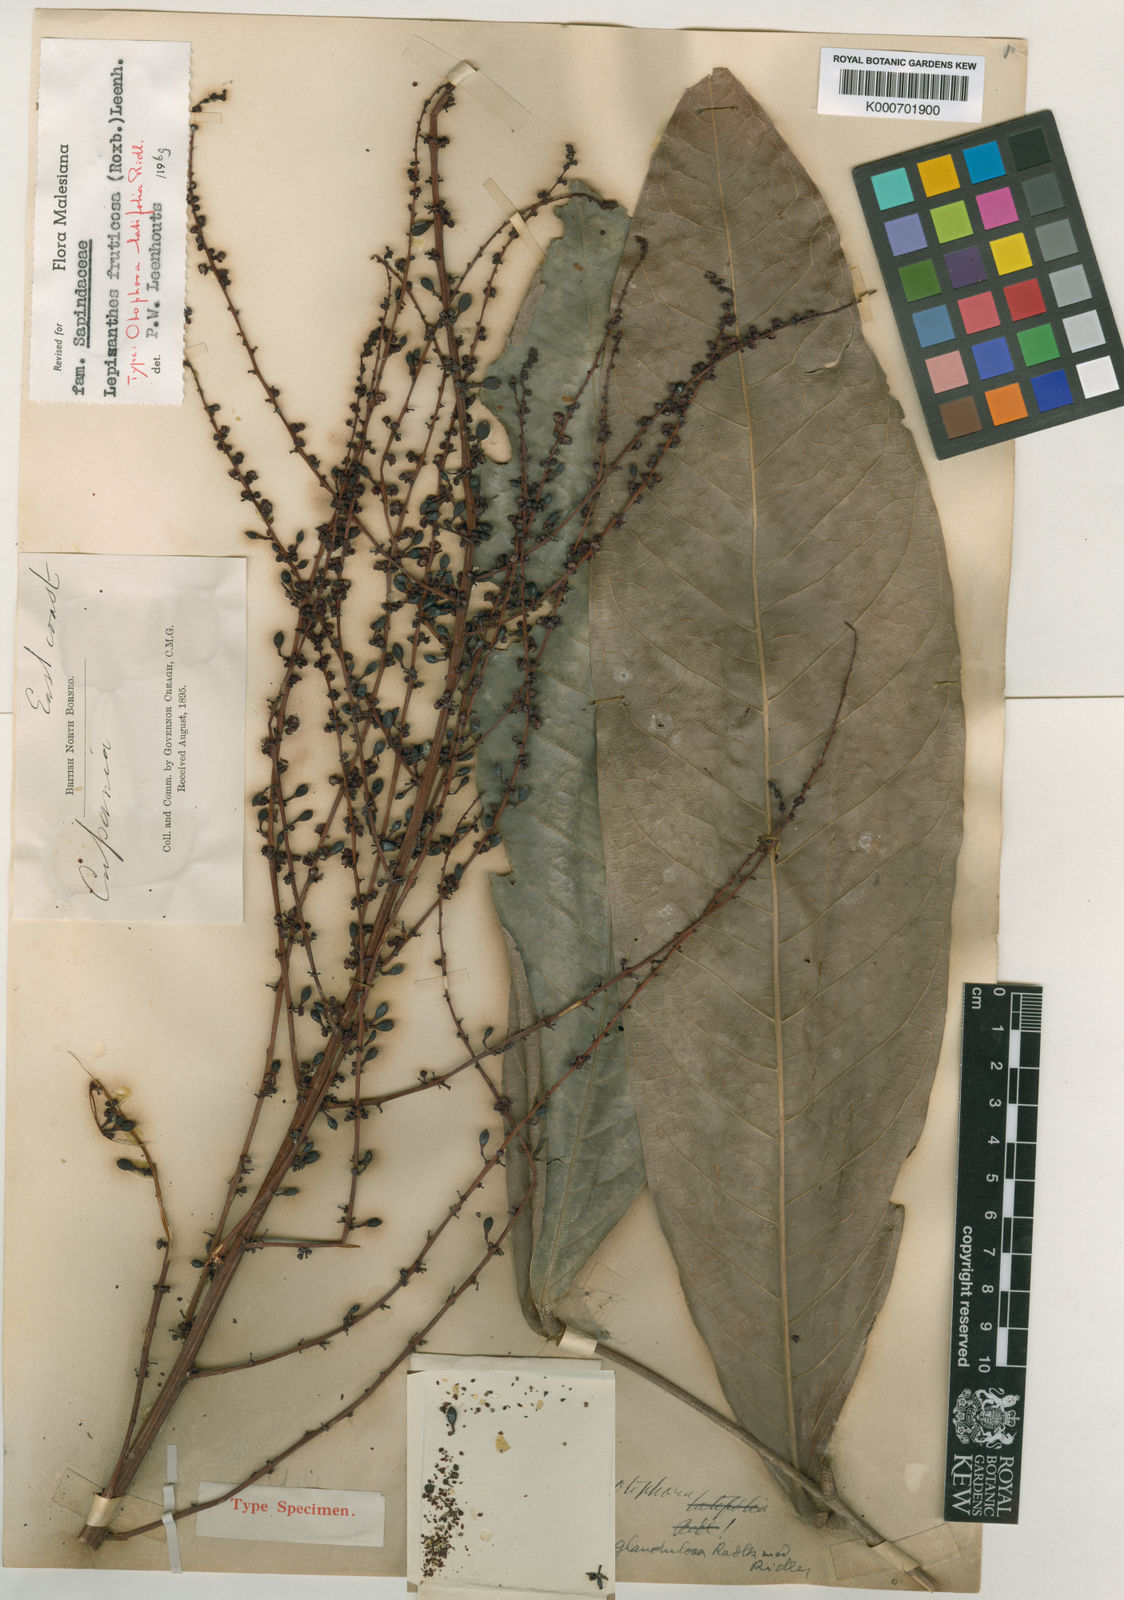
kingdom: Plantae
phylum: Tracheophyta
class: Magnoliopsida
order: Sapindales
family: Sapindaceae
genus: Lepisanthes
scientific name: Lepisanthes fruticosa
